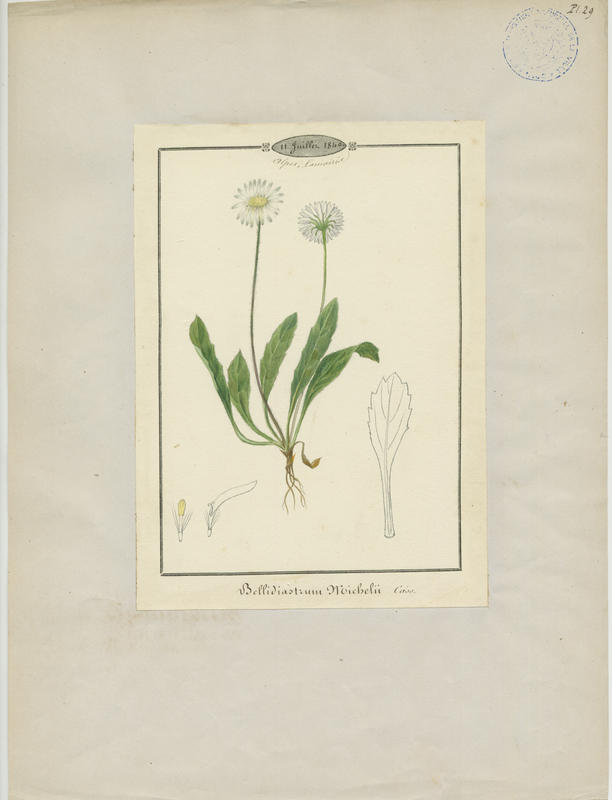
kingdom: Plantae
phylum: Tracheophyta
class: Magnoliopsida
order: Asterales
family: Asteraceae
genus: Bellidiastrum
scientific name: Bellidiastrum michelii
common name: Daisy-star aster
